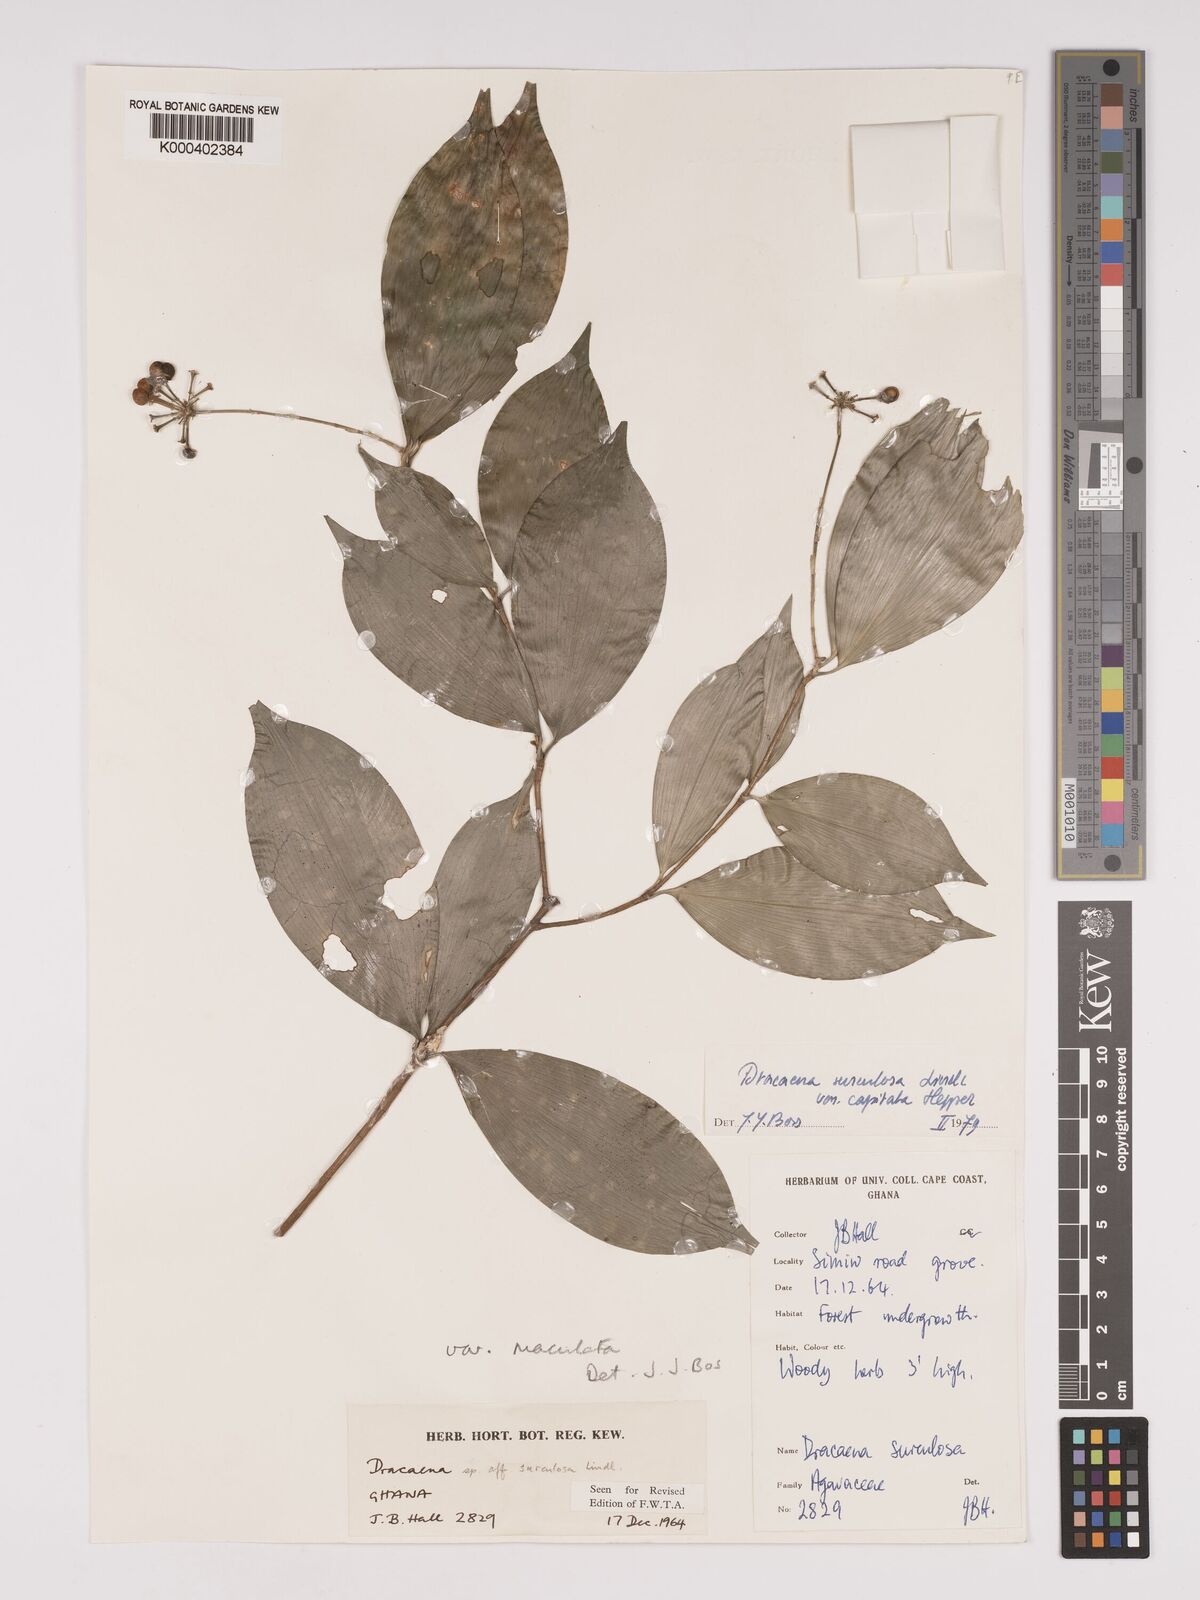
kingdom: Plantae
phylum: Tracheophyta
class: Liliopsida
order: Asparagales
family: Asparagaceae
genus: Dracaena
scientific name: Dracaena surculosa
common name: Spotted dracaena
